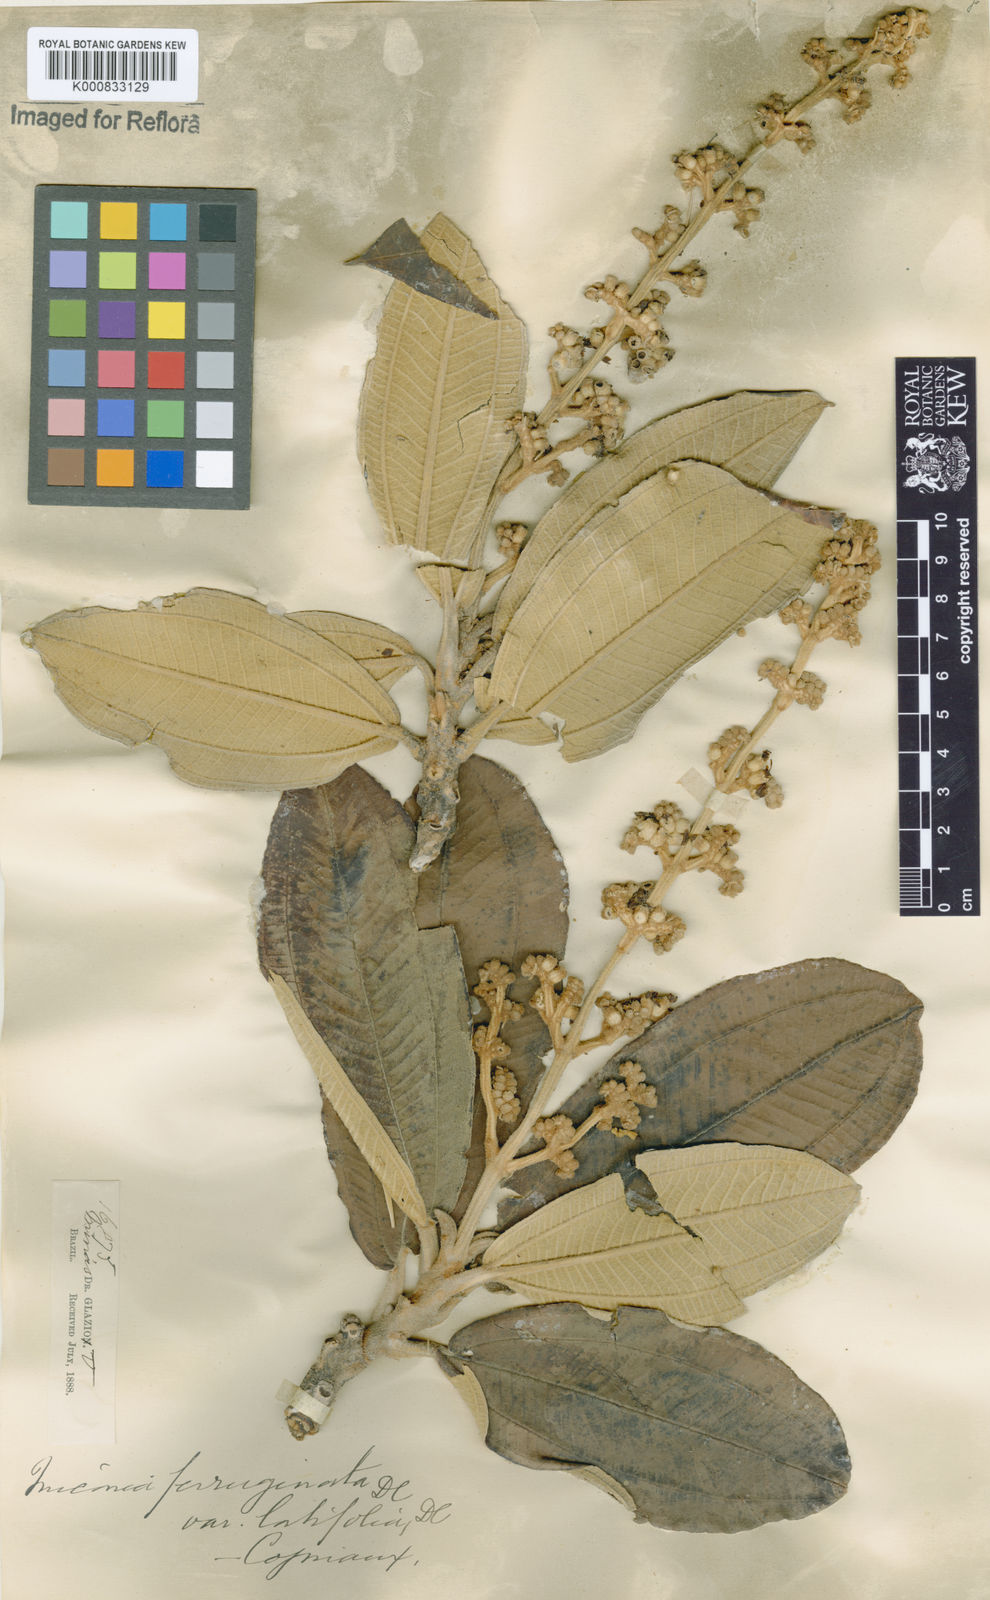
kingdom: Plantae
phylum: Tracheophyta
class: Magnoliopsida
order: Myrtales
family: Melastomataceae
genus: Miconia
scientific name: Miconia ferruginata
